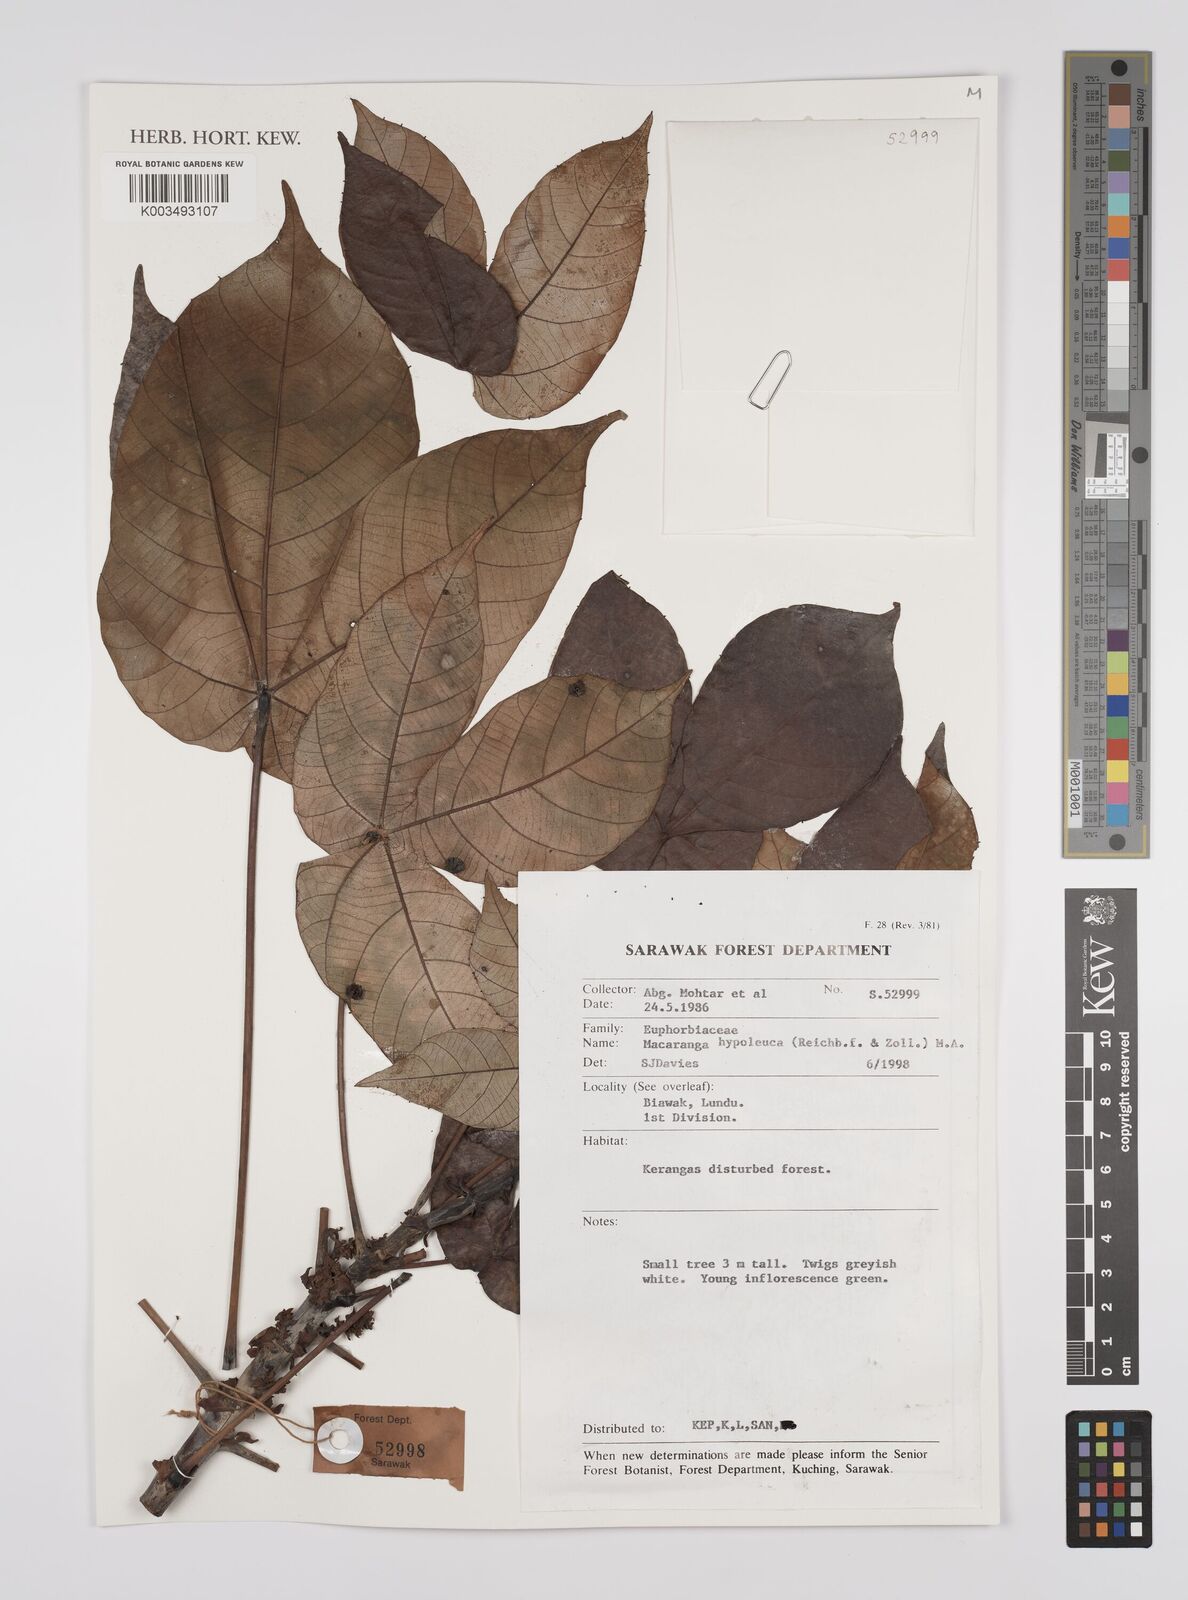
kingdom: Plantae
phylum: Tracheophyta
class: Magnoliopsida
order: Malpighiales
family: Euphorbiaceae
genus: Macaranga
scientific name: Macaranga hypoleuca
